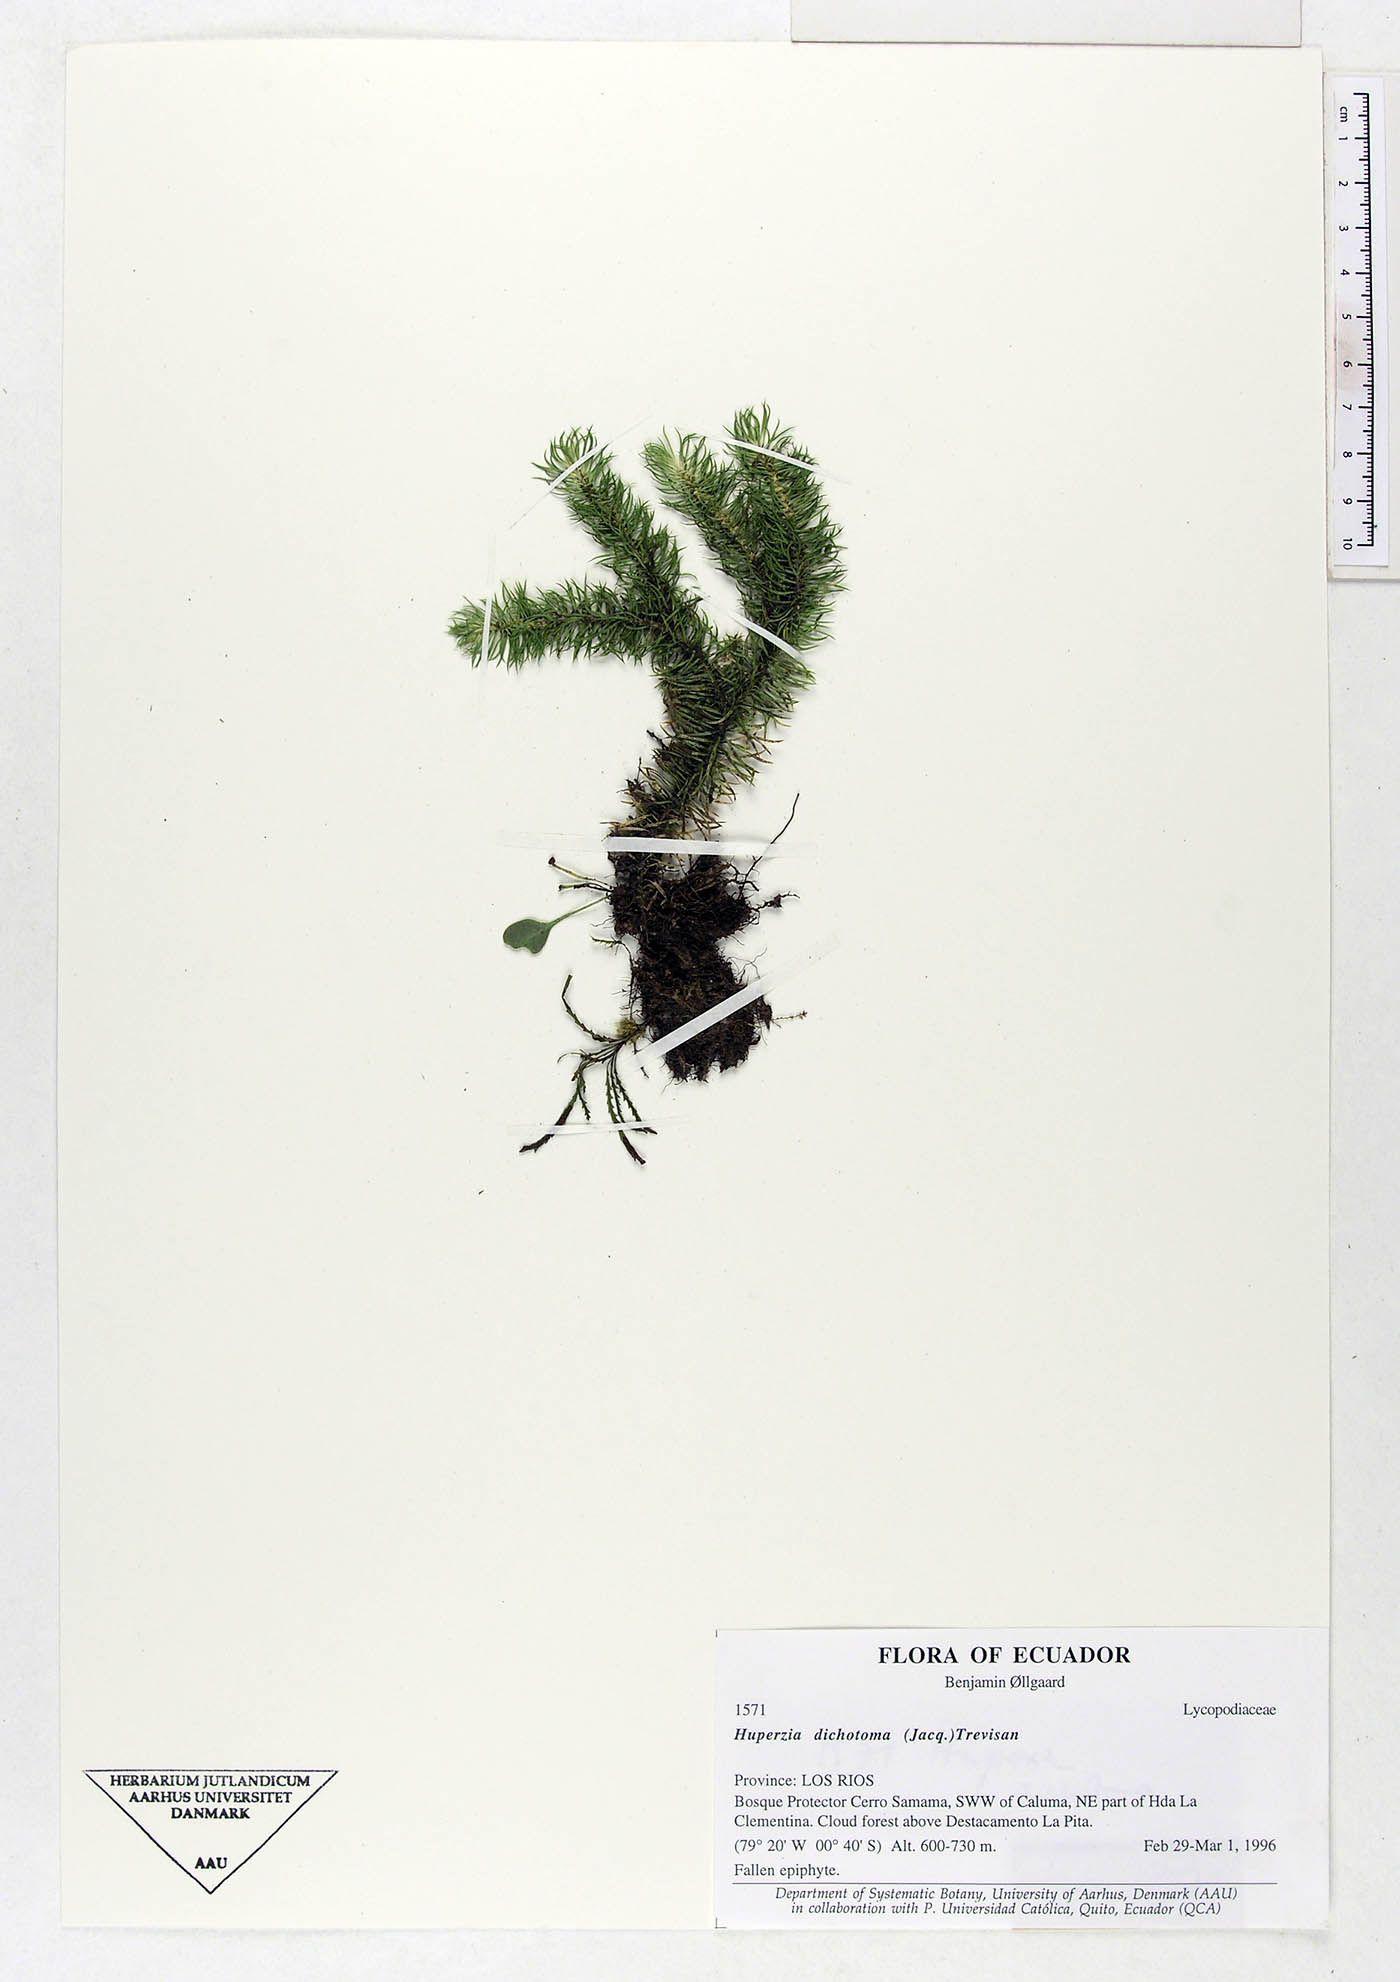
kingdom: Plantae
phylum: Tracheophyta
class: Lycopodiopsida
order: Lycopodiales
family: Lycopodiaceae
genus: Phlegmariurus
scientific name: Phlegmariurus dichotomus
